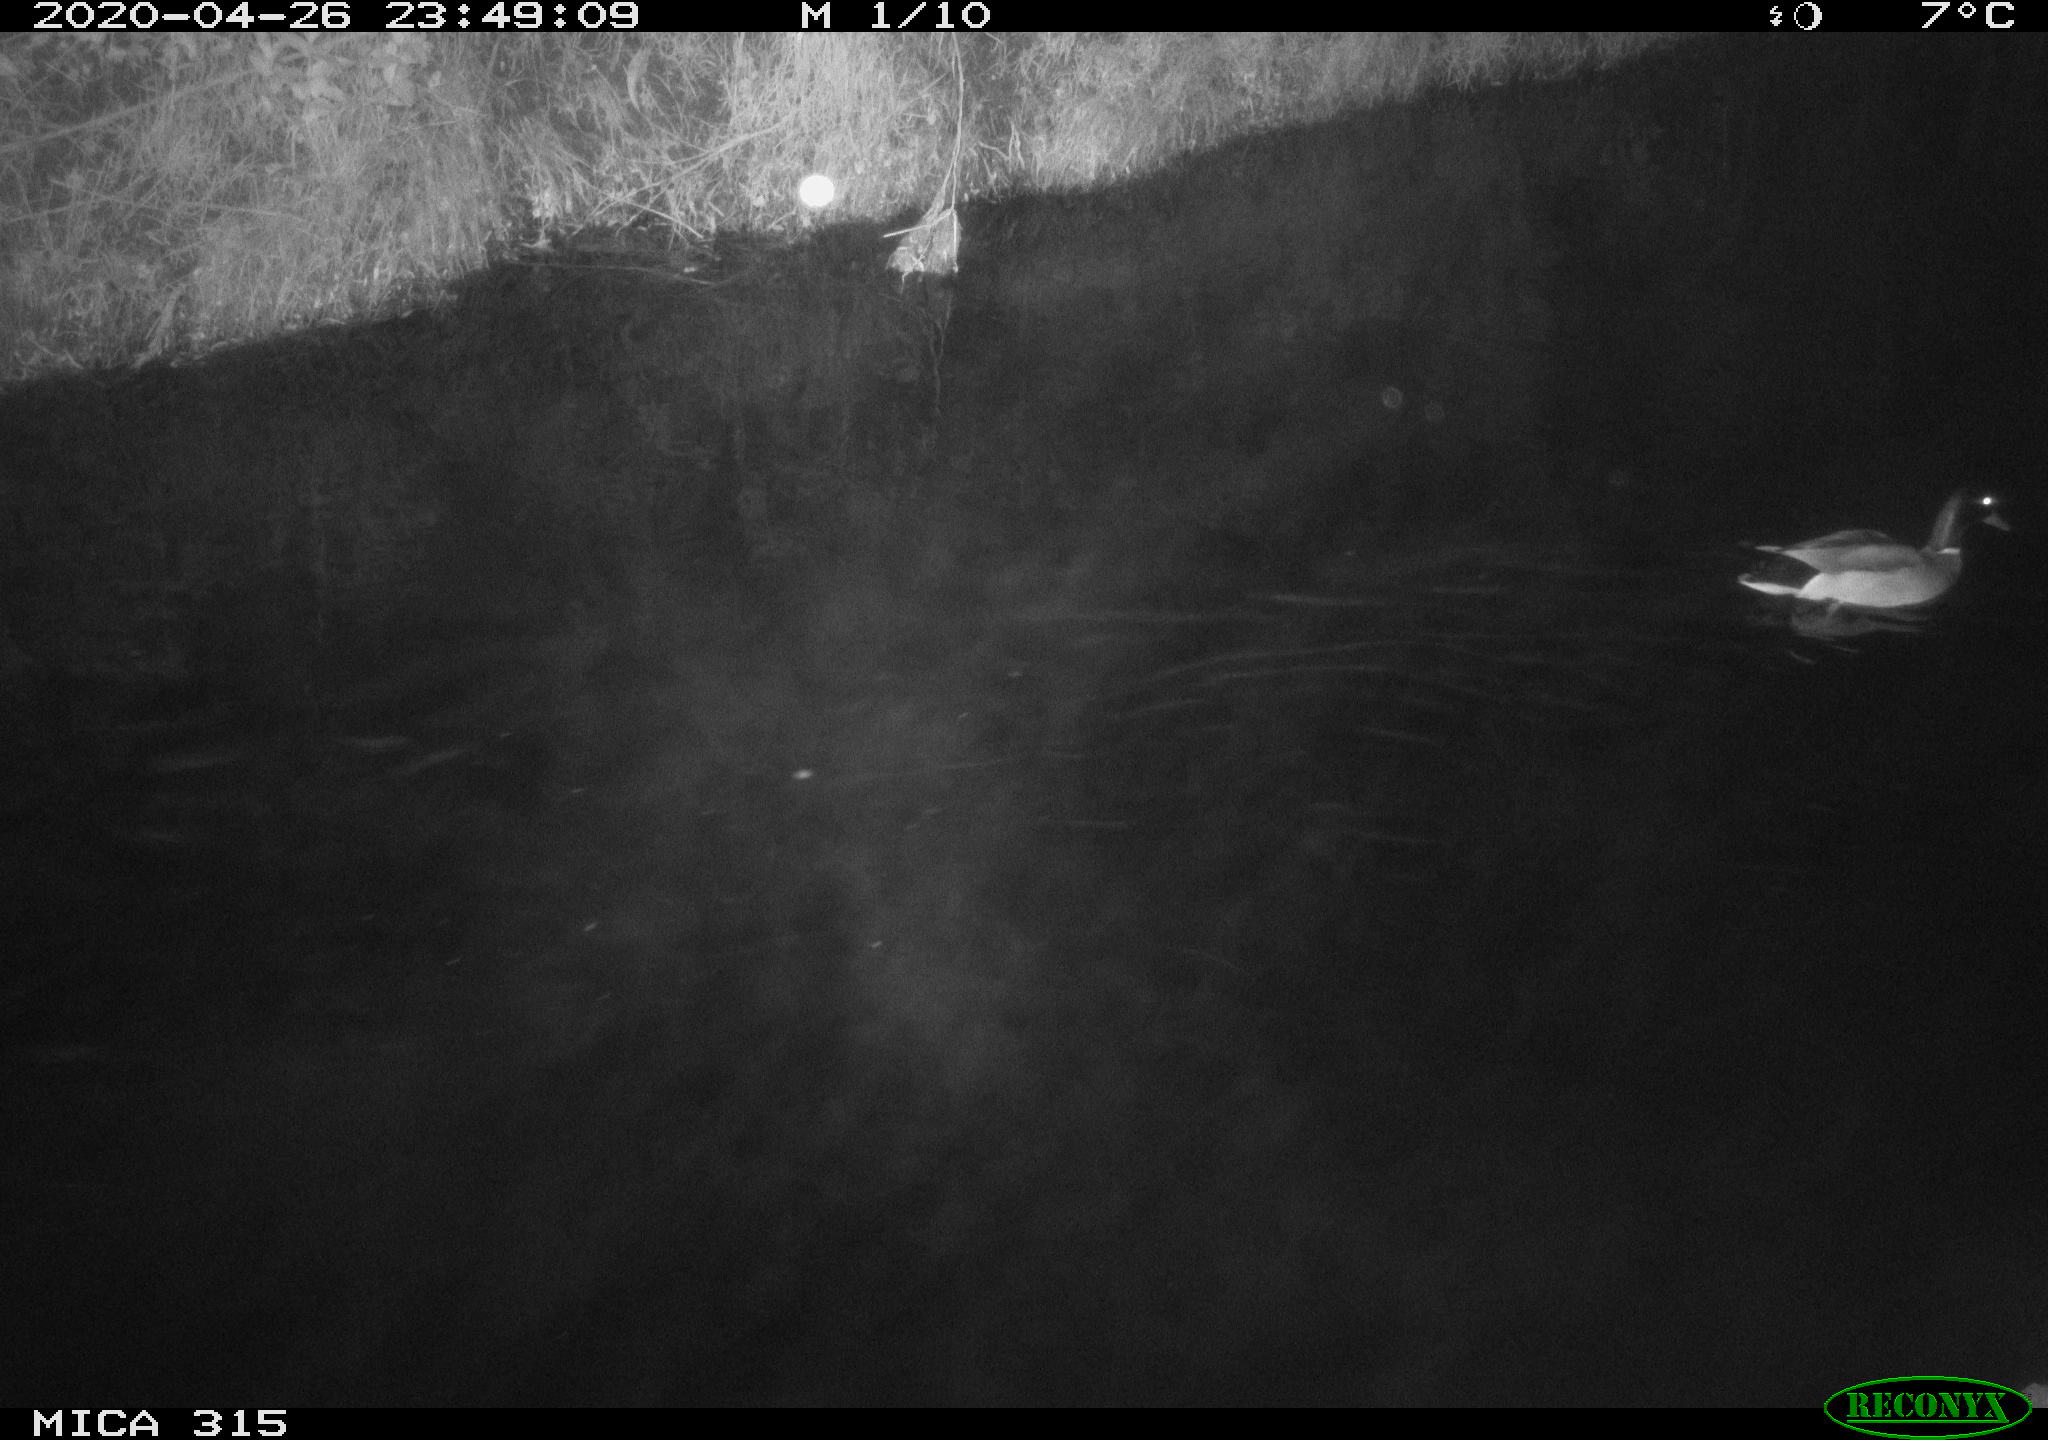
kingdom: Animalia
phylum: Chordata
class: Aves
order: Anseriformes
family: Anatidae
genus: Anas
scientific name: Anas platyrhynchos
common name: Mallard
